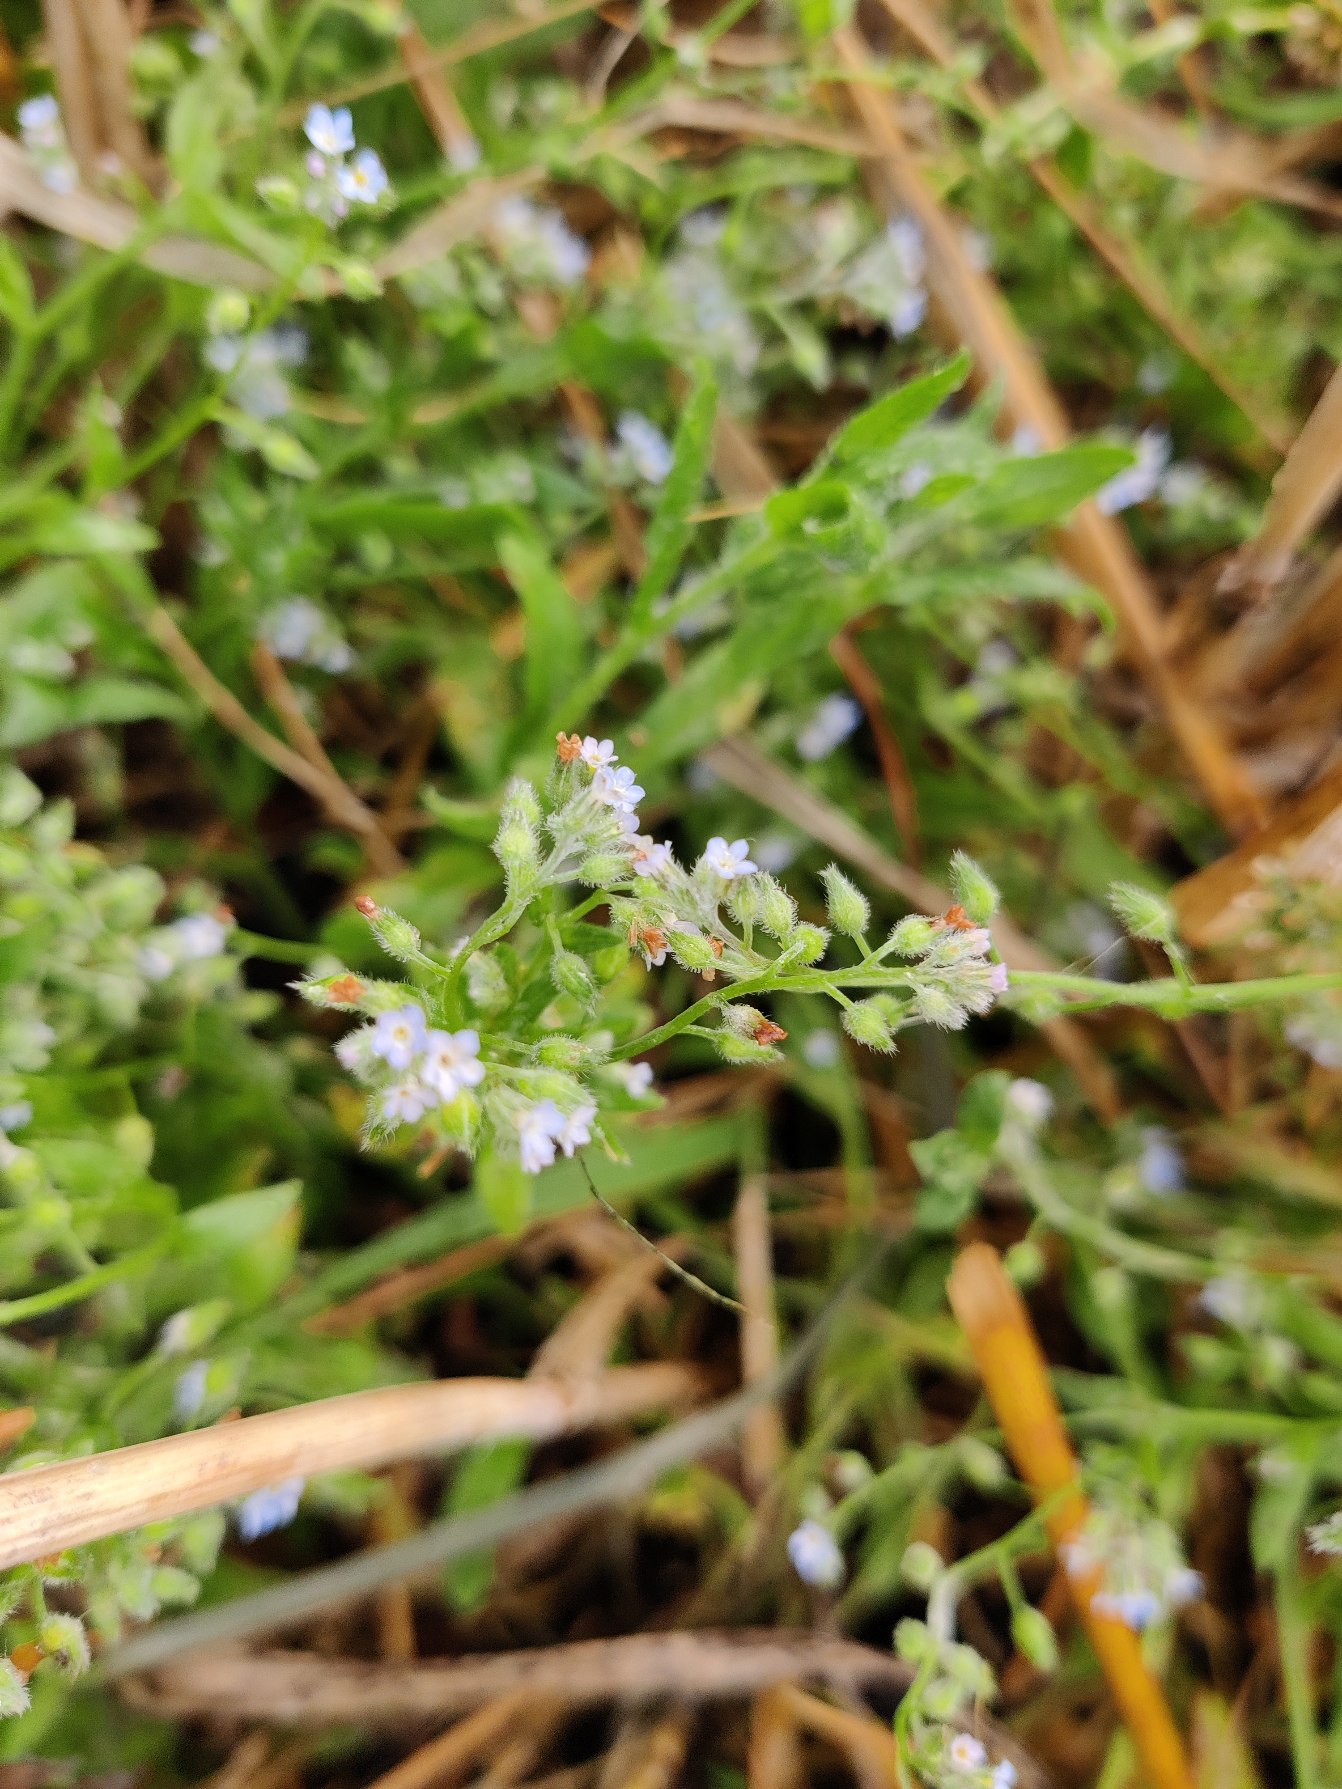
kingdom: Plantae
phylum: Tracheophyta
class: Magnoliopsida
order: Boraginales
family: Boraginaceae
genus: Myosotis
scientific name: Myosotis arvensis
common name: Mark-forglemmigej
